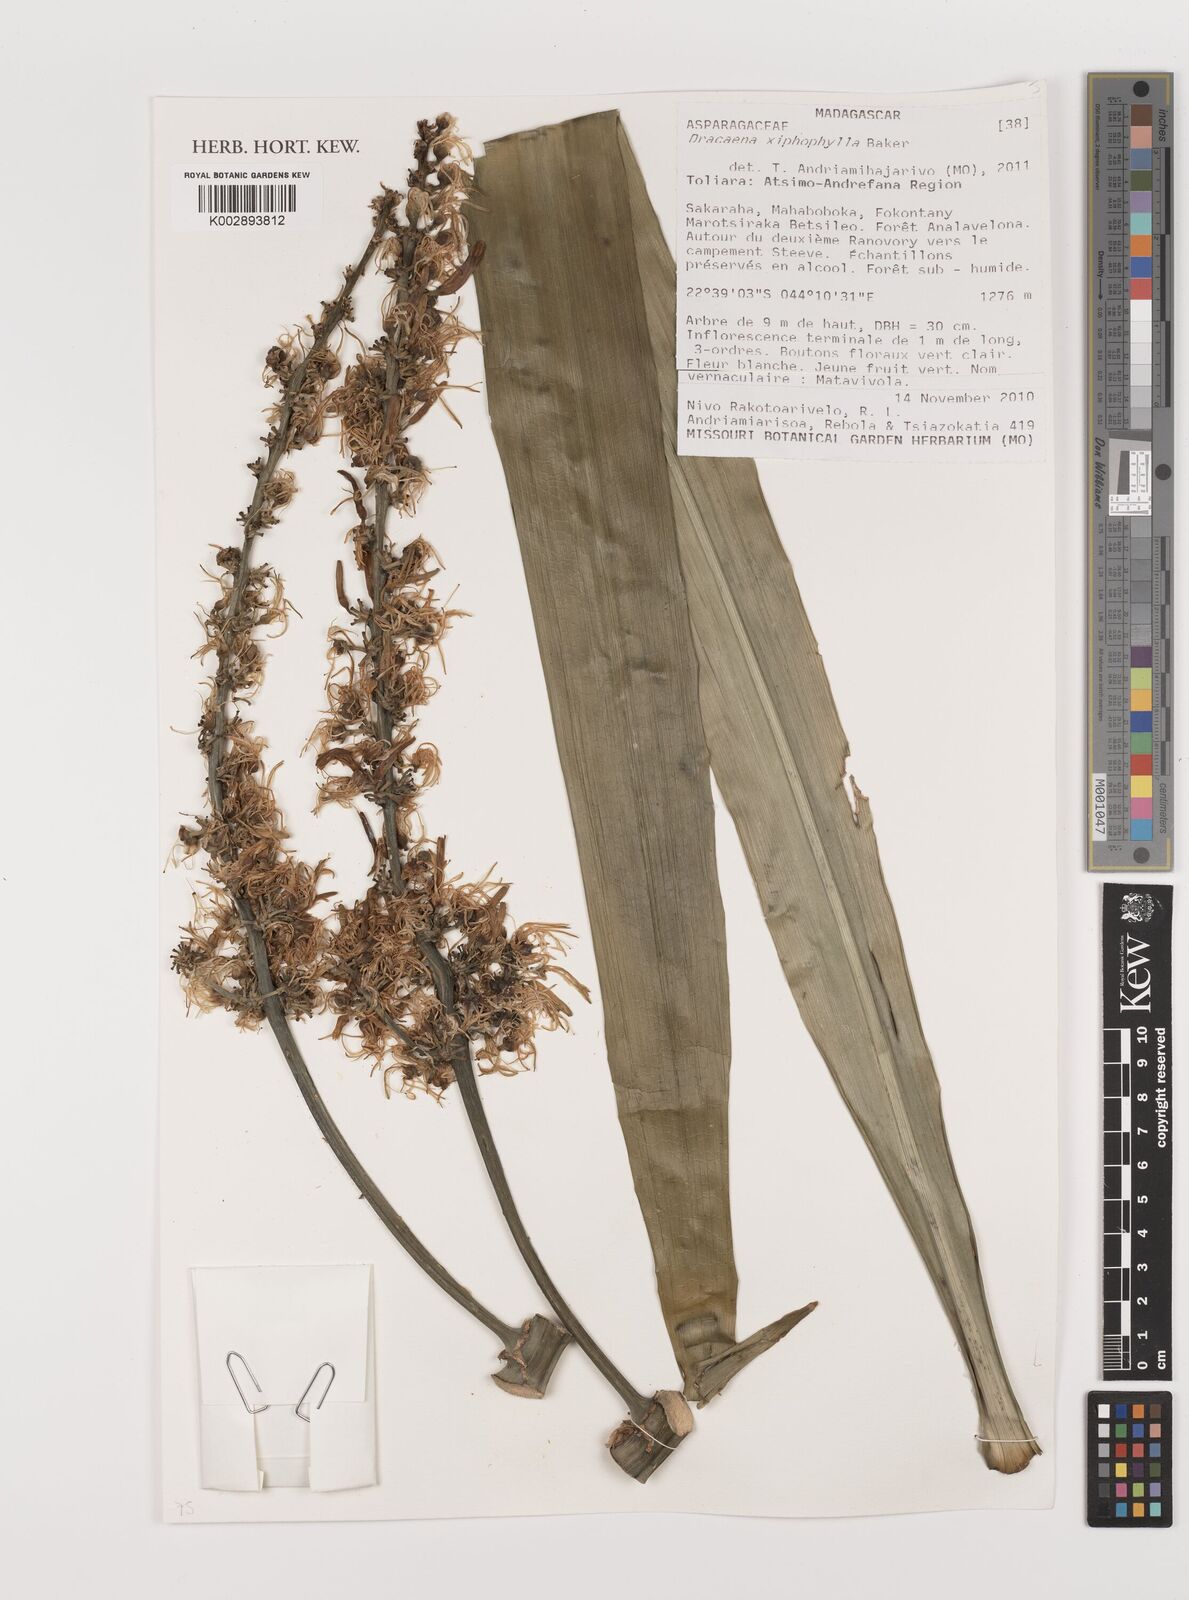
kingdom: Plantae
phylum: Tracheophyta
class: Liliopsida
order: Asparagales
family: Asparagaceae
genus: Dracaena
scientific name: Dracaena xiphophylla
